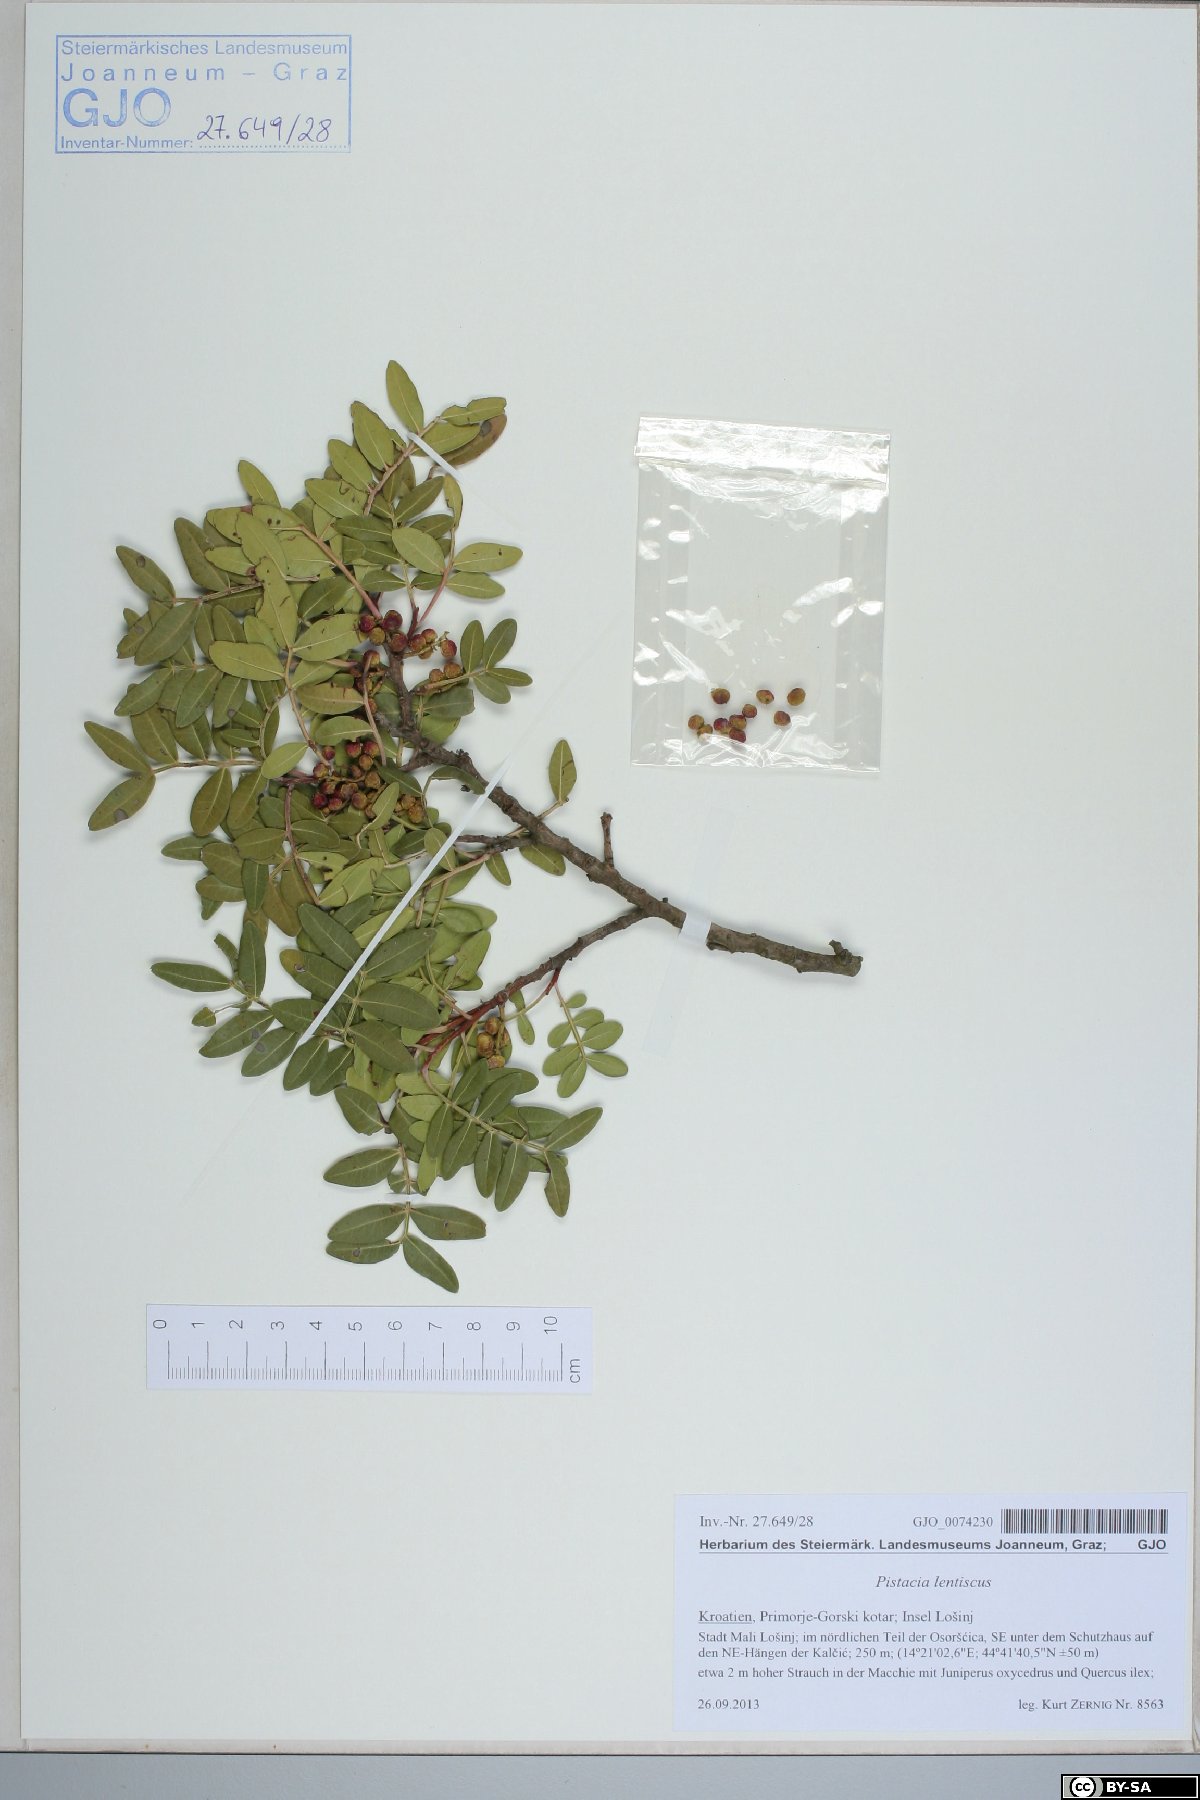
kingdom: Plantae
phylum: Tracheophyta
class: Magnoliopsida
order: Sapindales
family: Anacardiaceae
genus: Pistacia
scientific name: Pistacia lentiscus
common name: Lentisk
